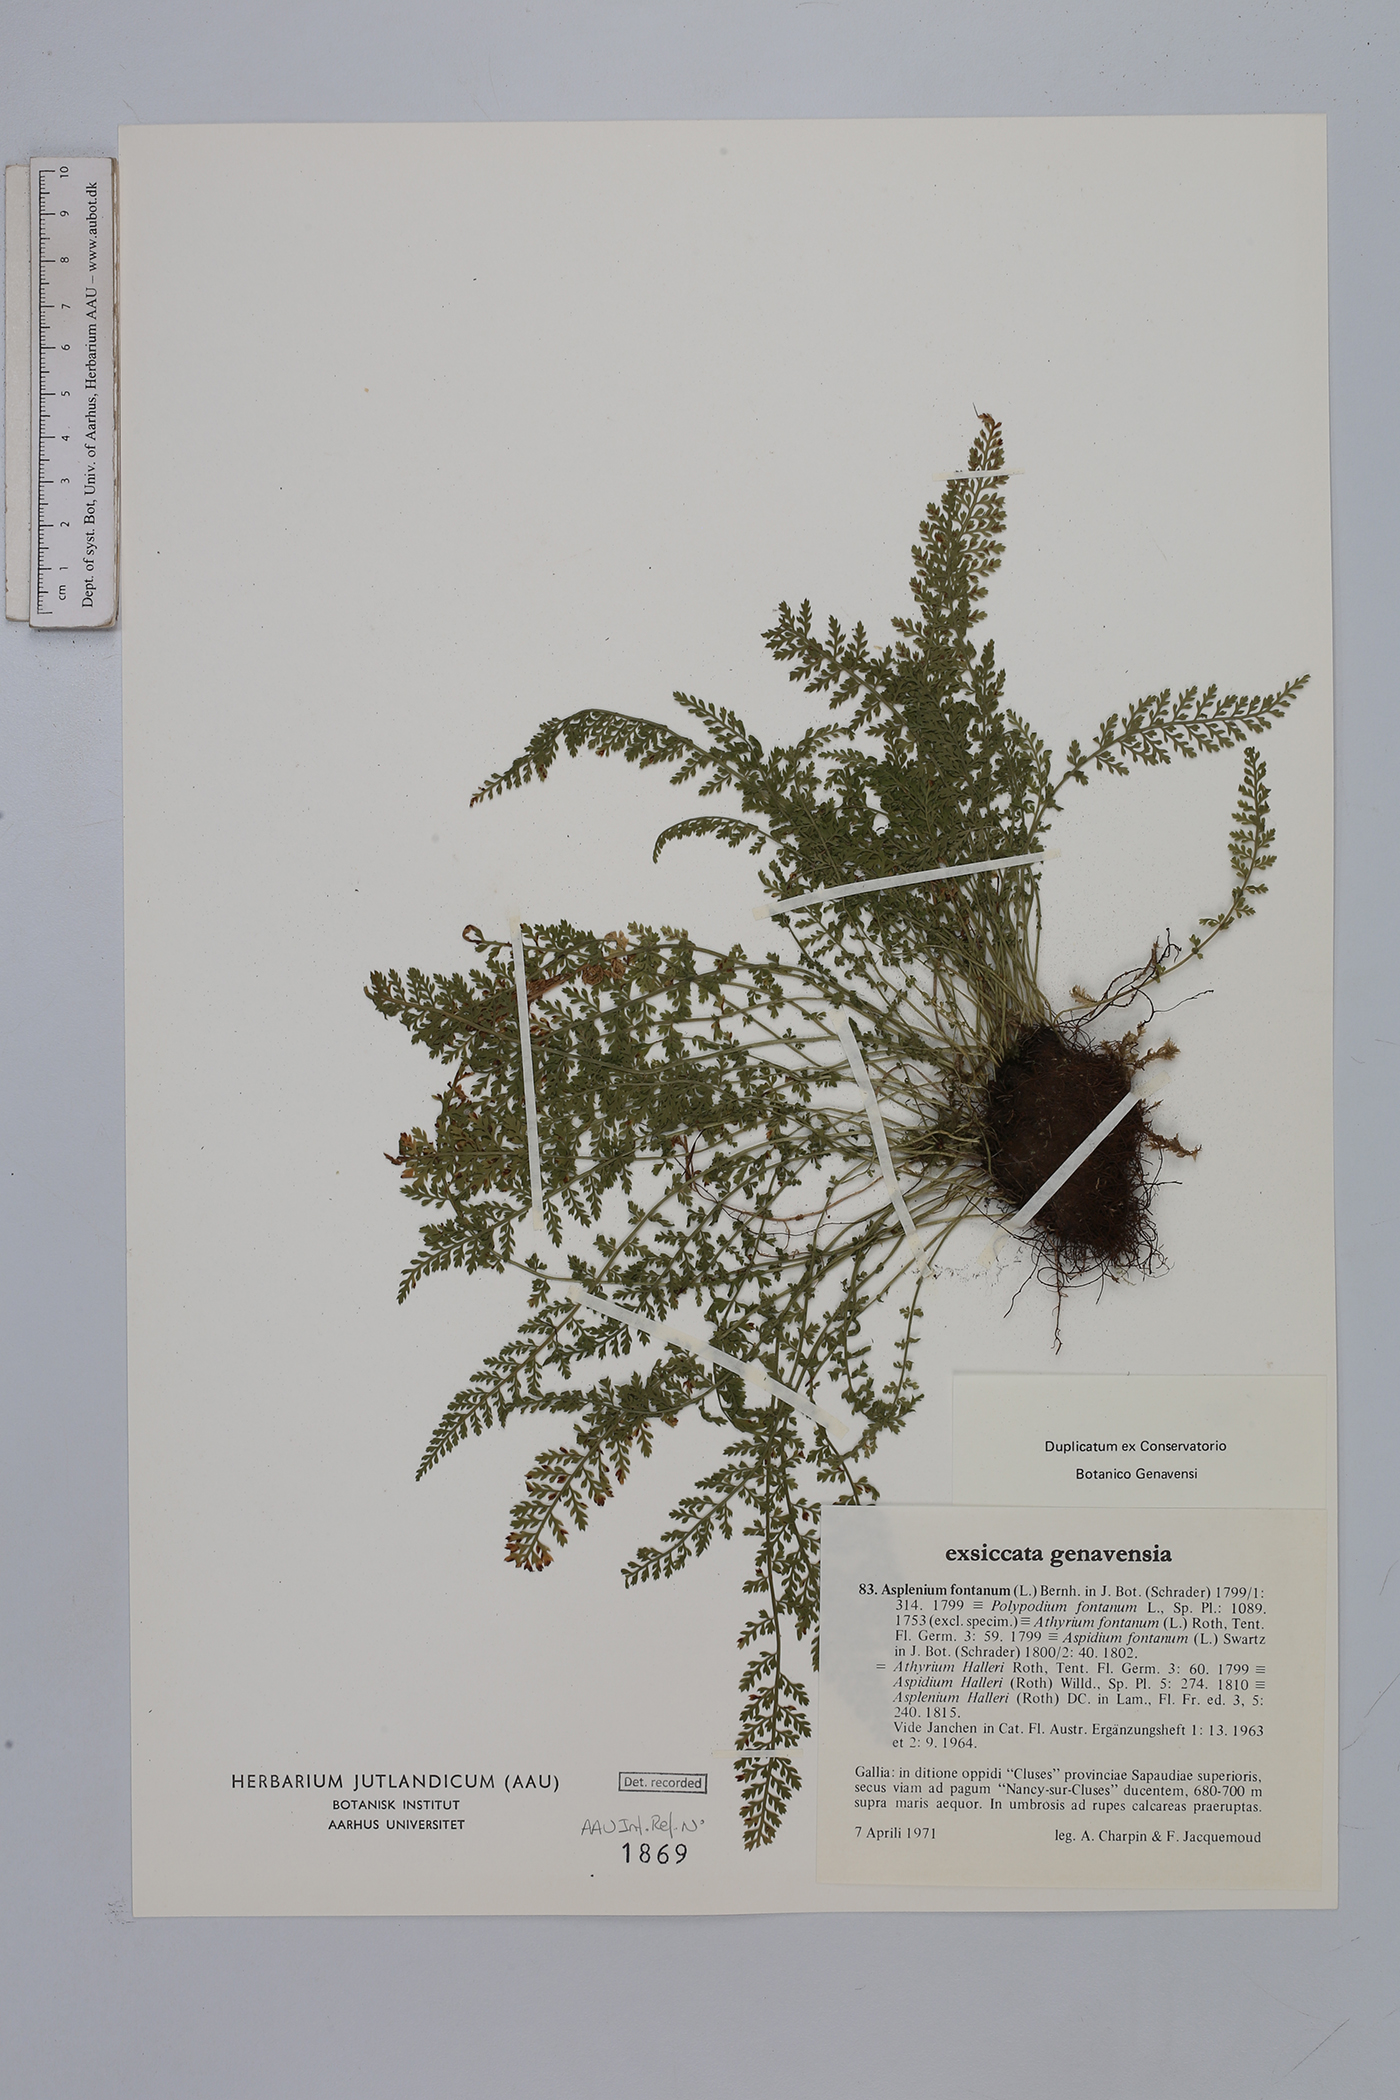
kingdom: Plantae
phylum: Tracheophyta
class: Polypodiopsida
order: Polypodiales
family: Aspleniaceae
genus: Asplenium
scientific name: Asplenium fontanum
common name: Fountain spleenwort
